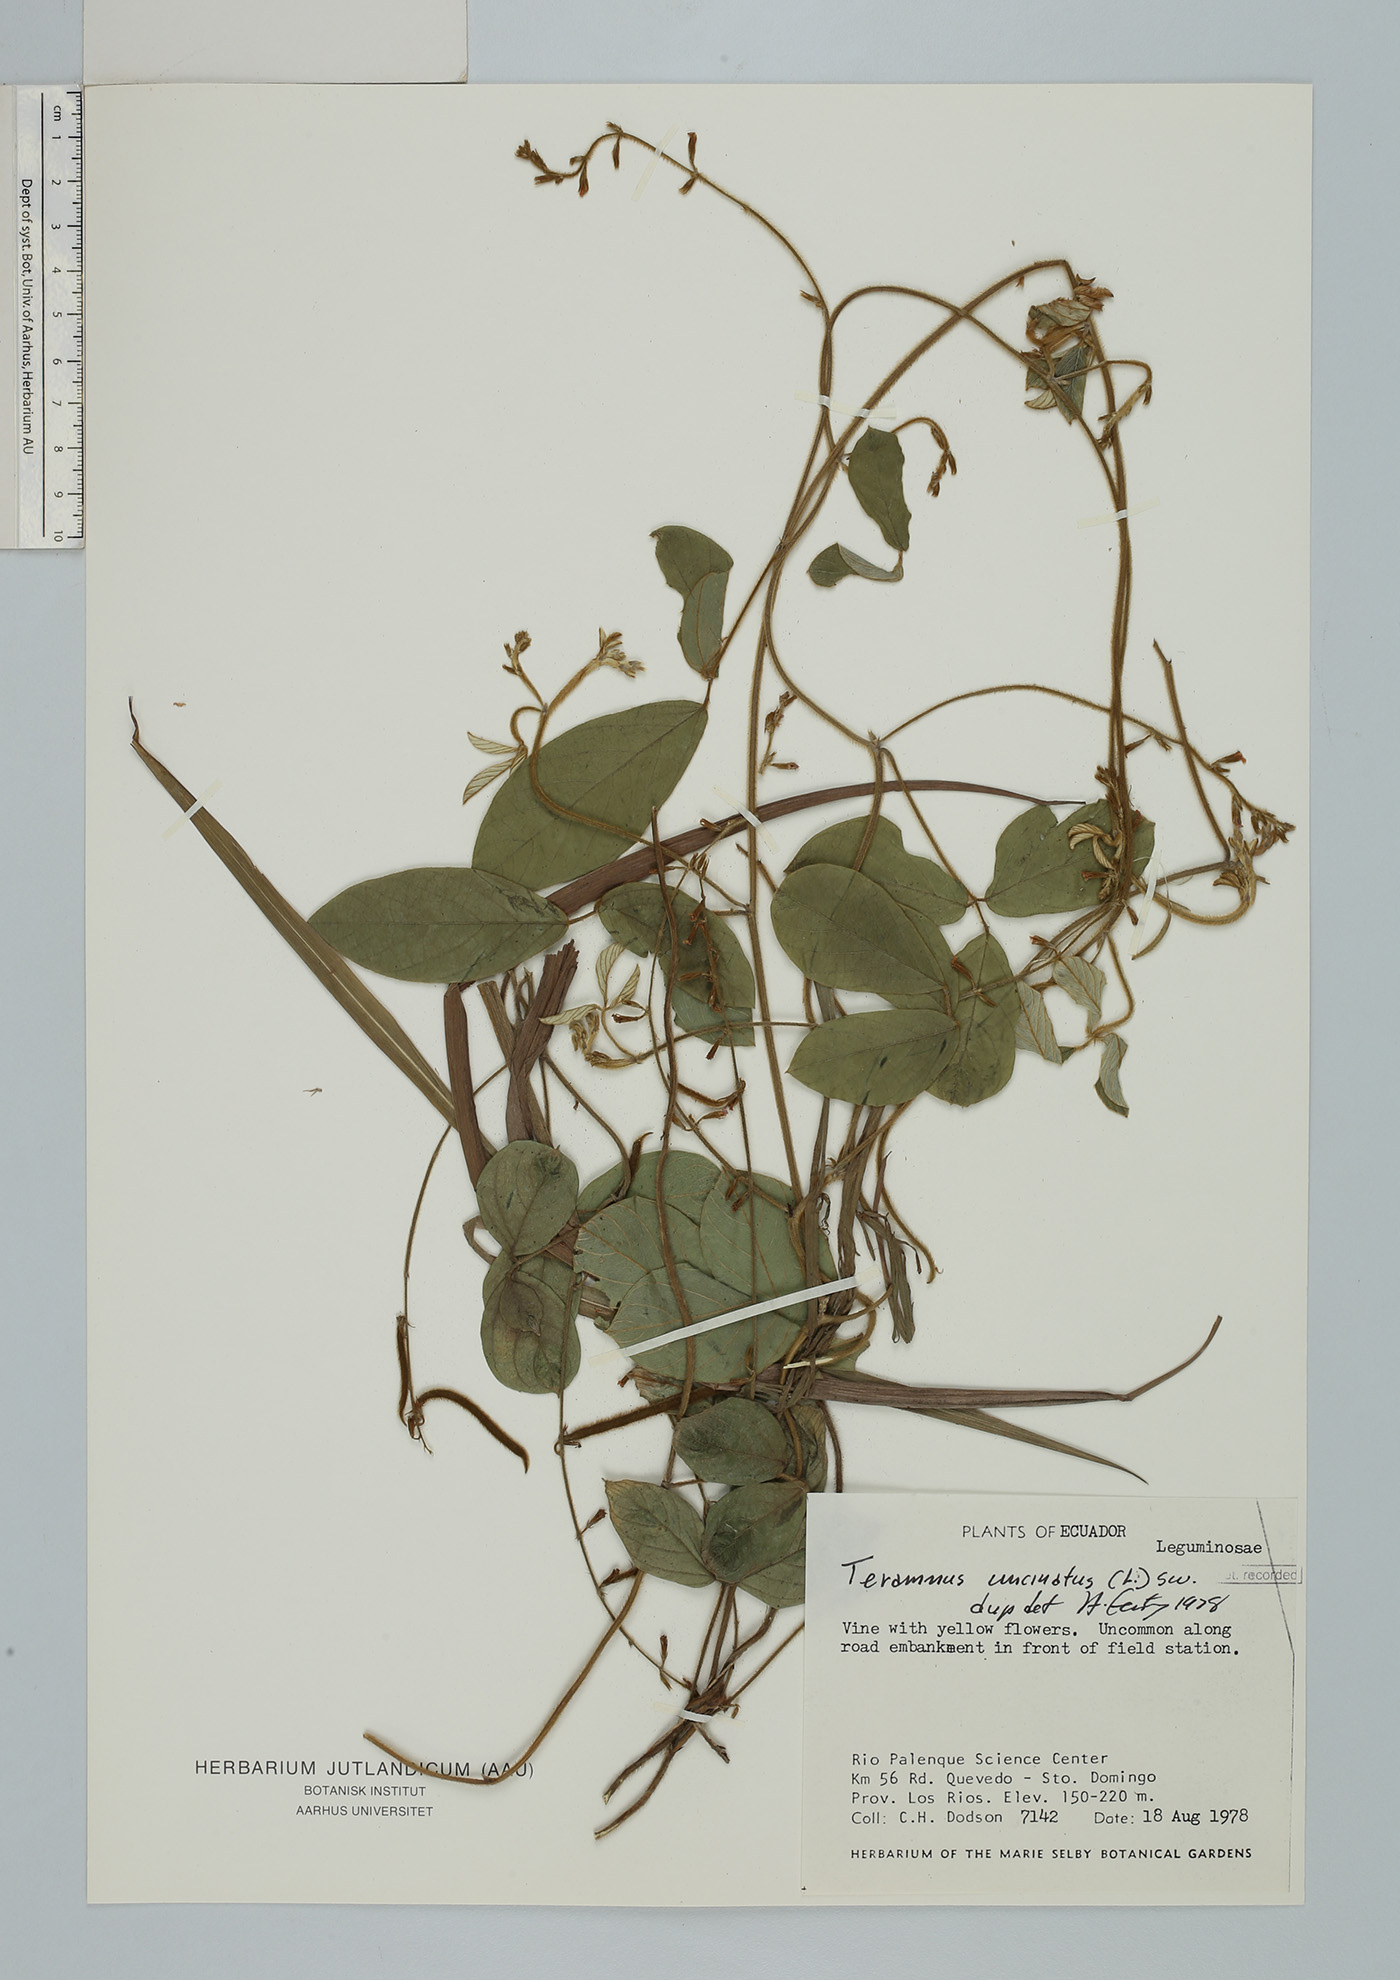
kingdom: Plantae
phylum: Tracheophyta
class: Magnoliopsida
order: Fabales
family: Fabaceae
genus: Teramnus
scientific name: Teramnus uncinatus
